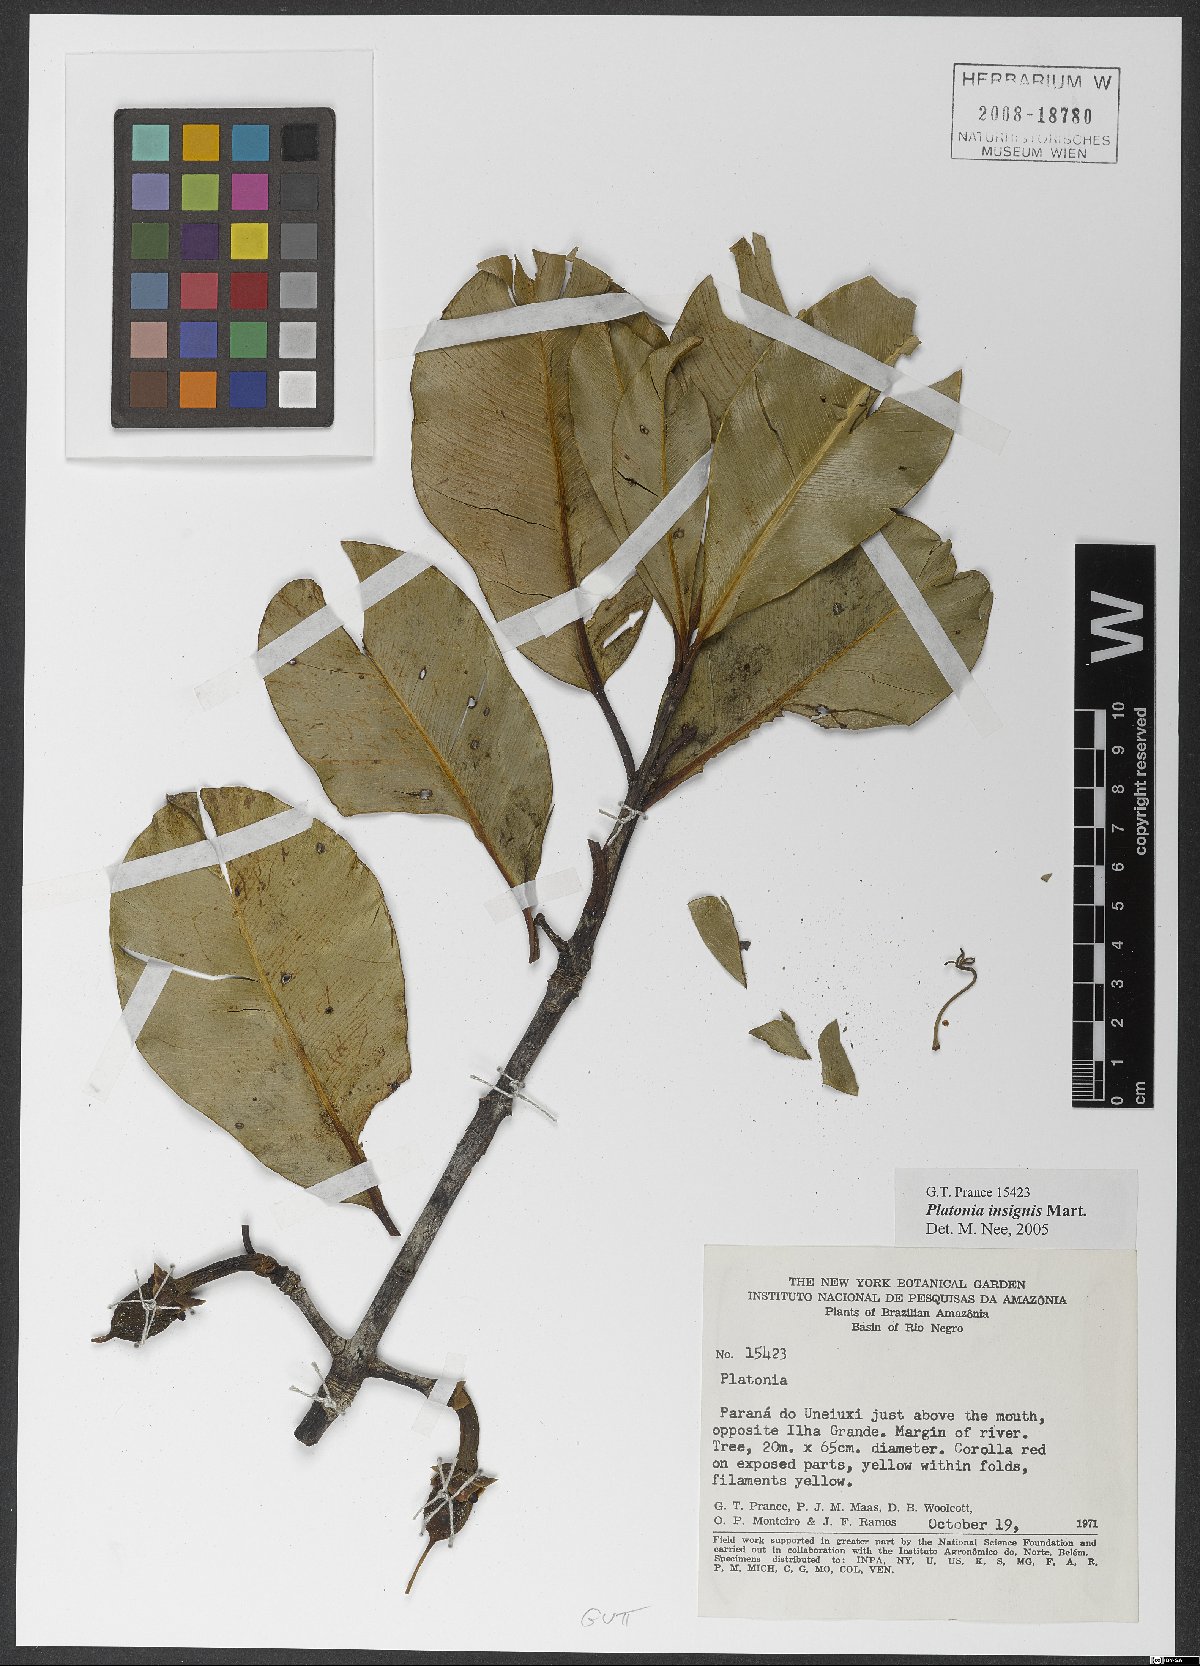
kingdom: Plantae
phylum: Tracheophyta
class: Magnoliopsida
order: Malpighiales
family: Clusiaceae
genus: Platonia
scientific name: Platonia insignis
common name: Bacury
